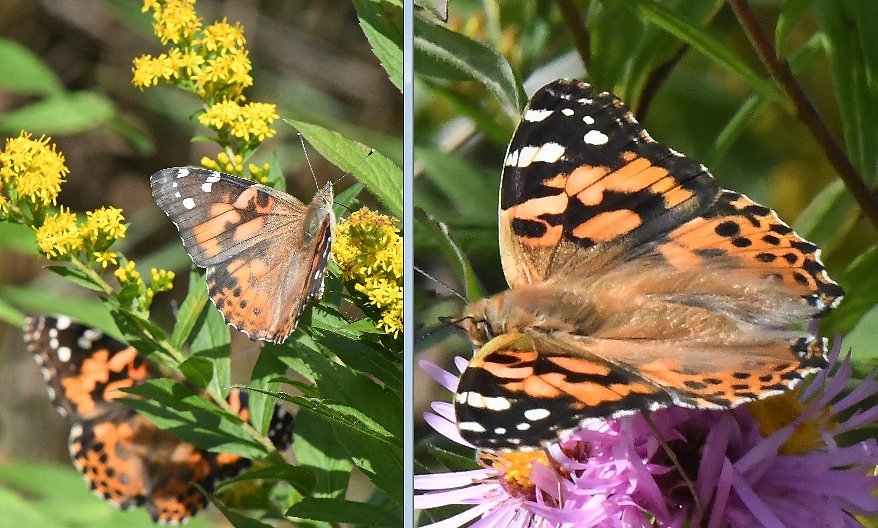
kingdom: Animalia
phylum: Arthropoda
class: Insecta
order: Lepidoptera
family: Nymphalidae
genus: Vanessa
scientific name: Vanessa cardui
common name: Painted Lady
